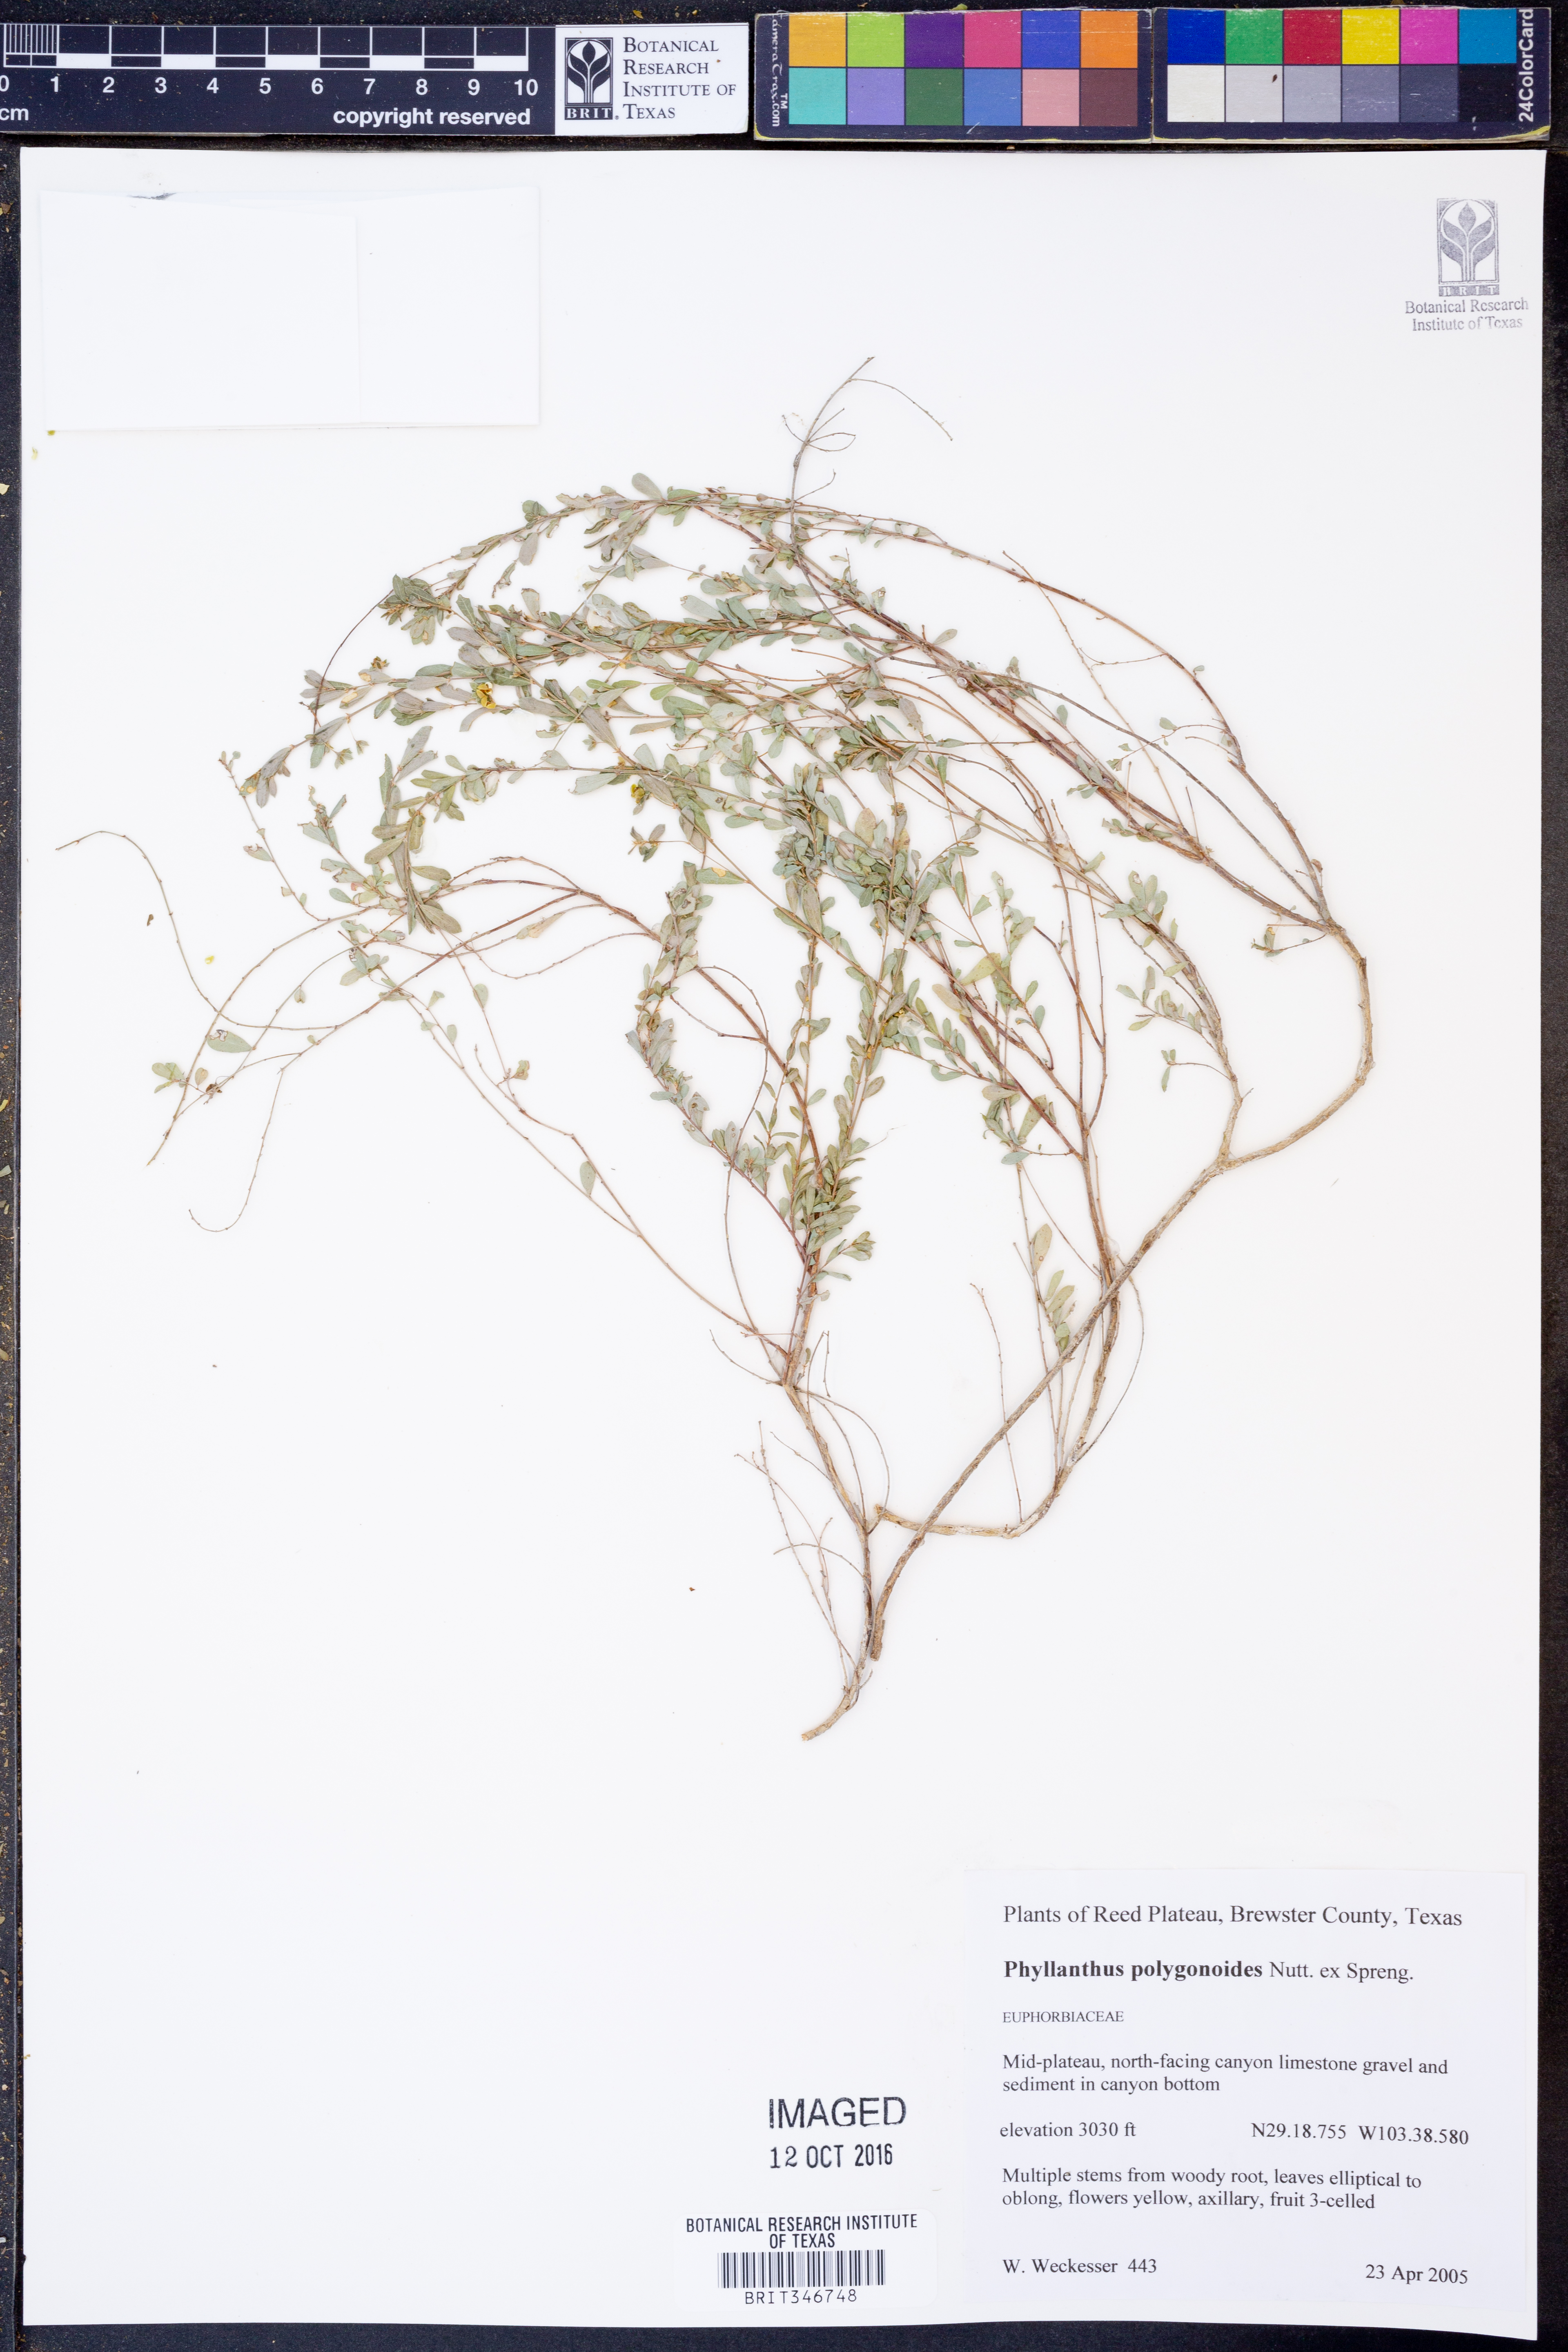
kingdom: Plantae
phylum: Tracheophyta
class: Magnoliopsida
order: Malpighiales
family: Phyllanthaceae
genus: Phyllanthus
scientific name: Phyllanthus polygonoides
